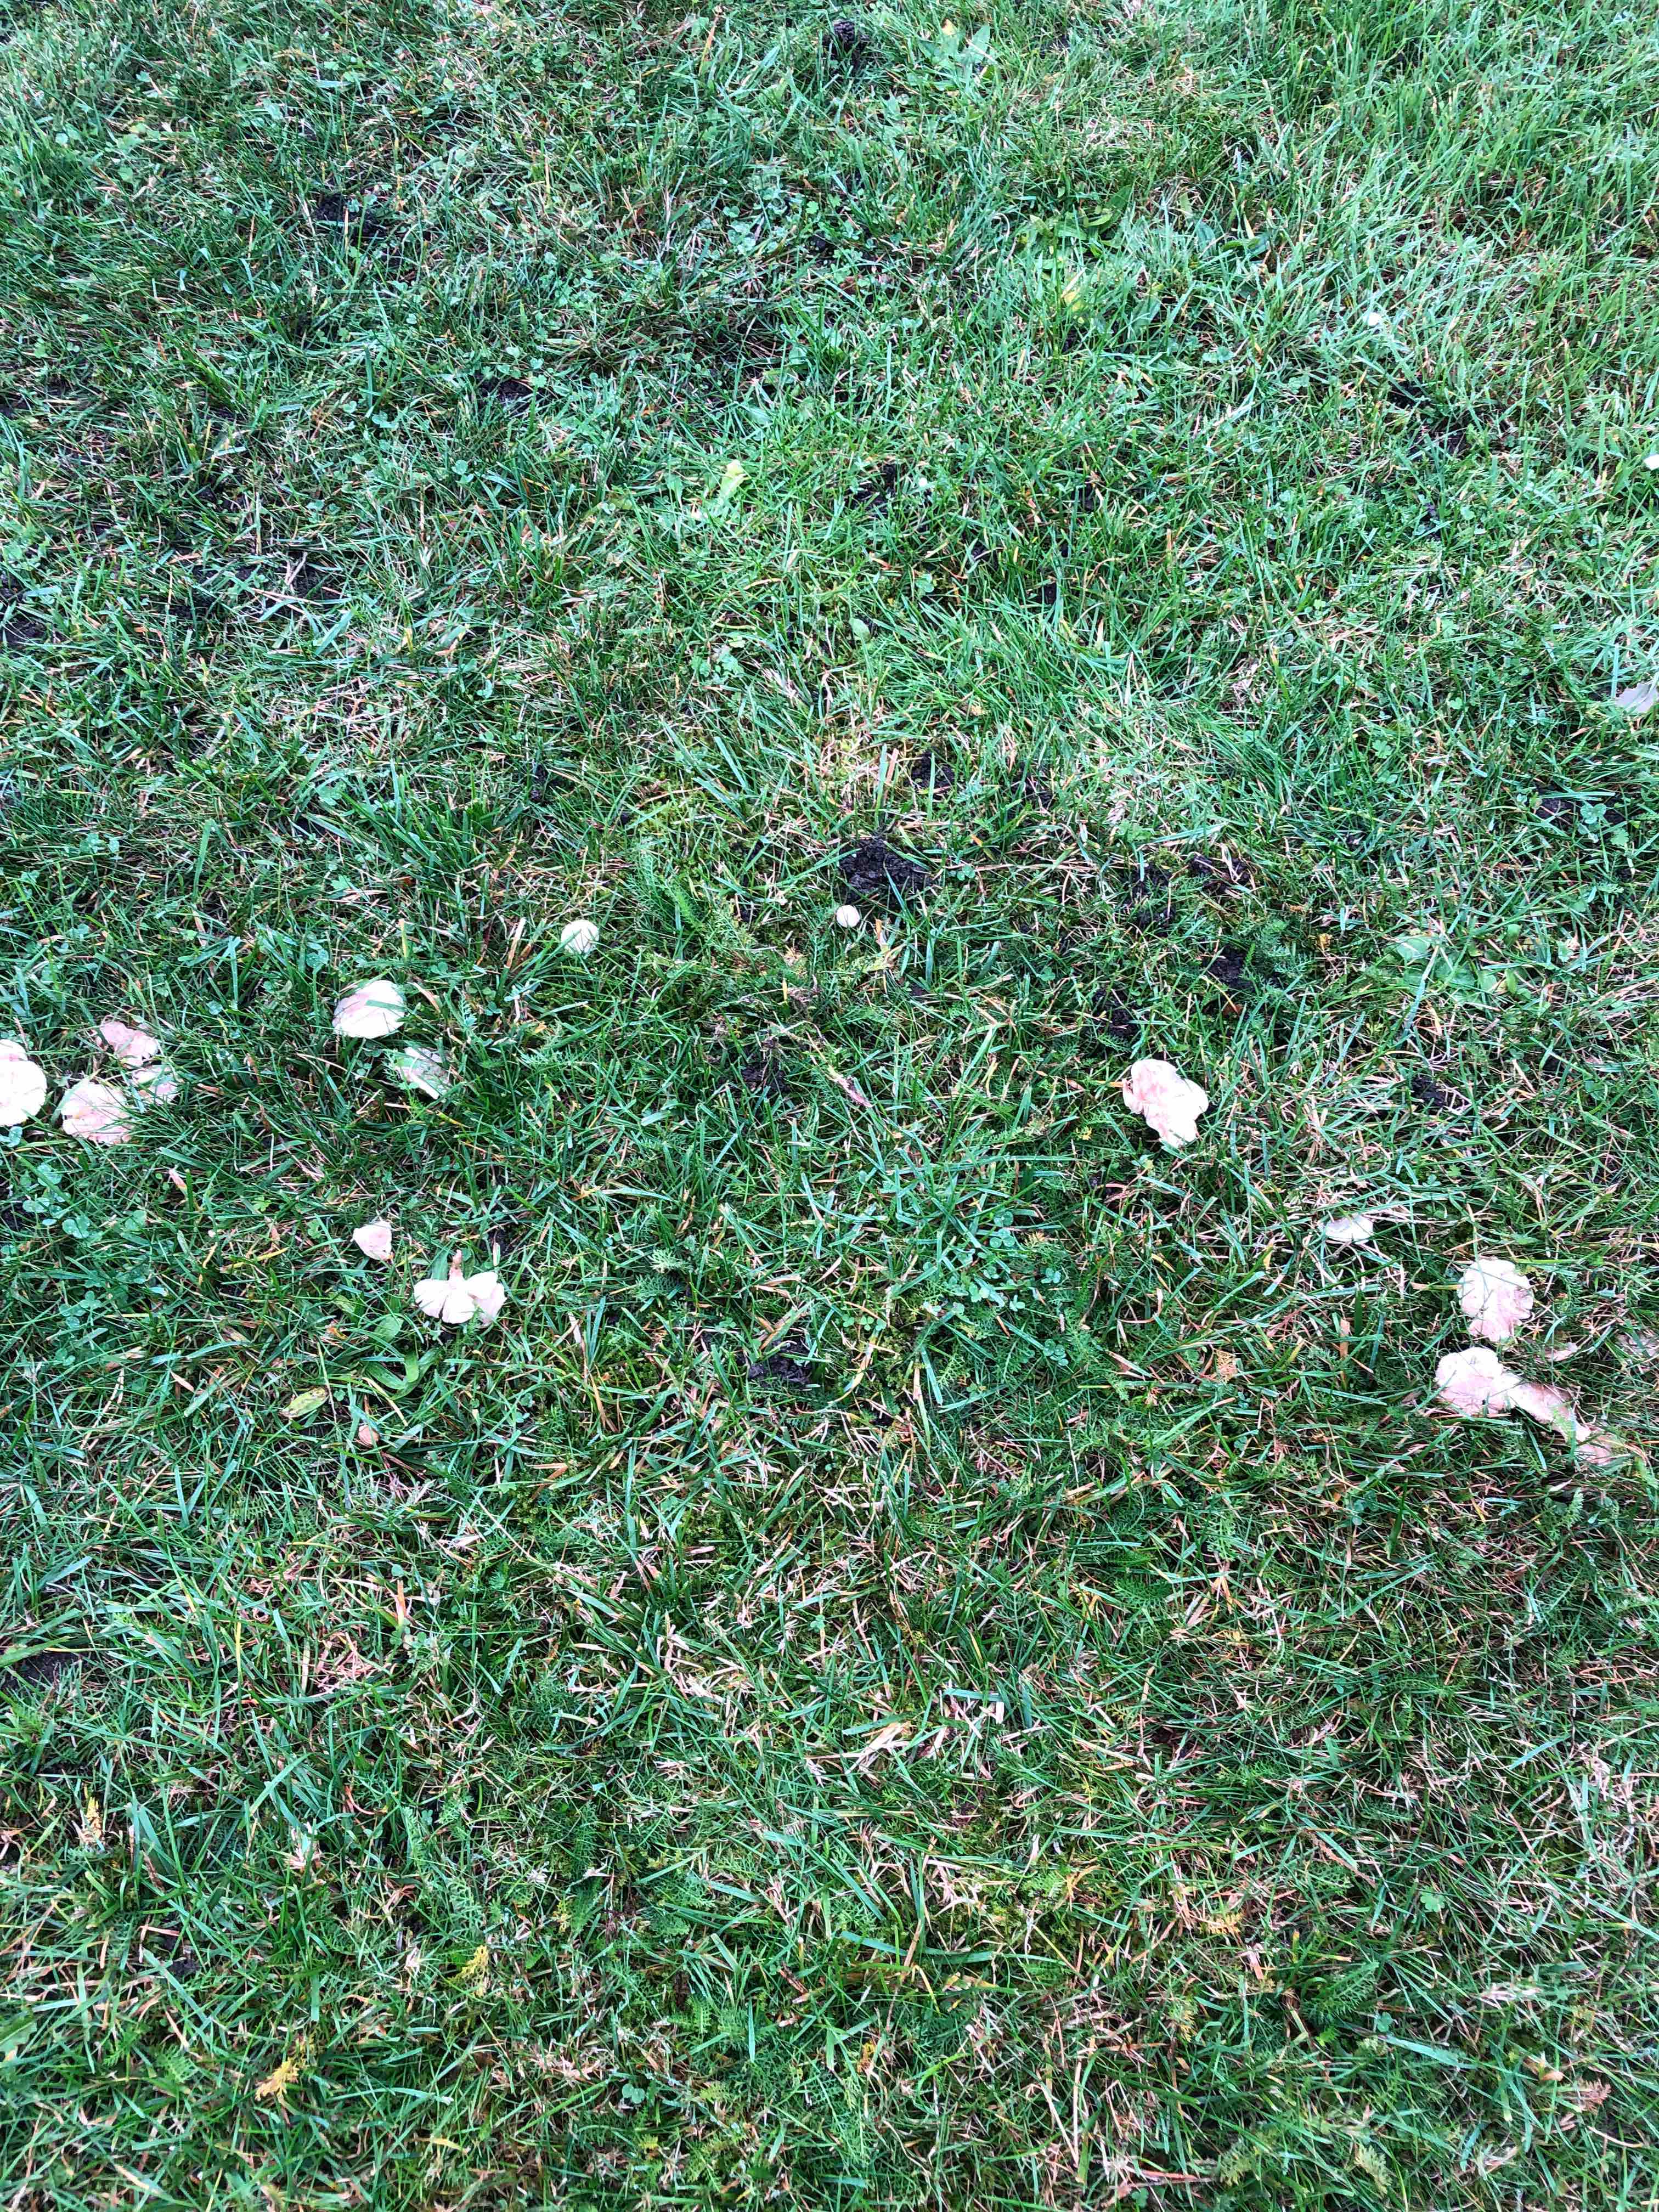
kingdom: Fungi
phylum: Basidiomycota
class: Agaricomycetes
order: Agaricales
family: Tricholomataceae
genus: Clitocybe
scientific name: Clitocybe rivulosa
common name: eng-tragthat
